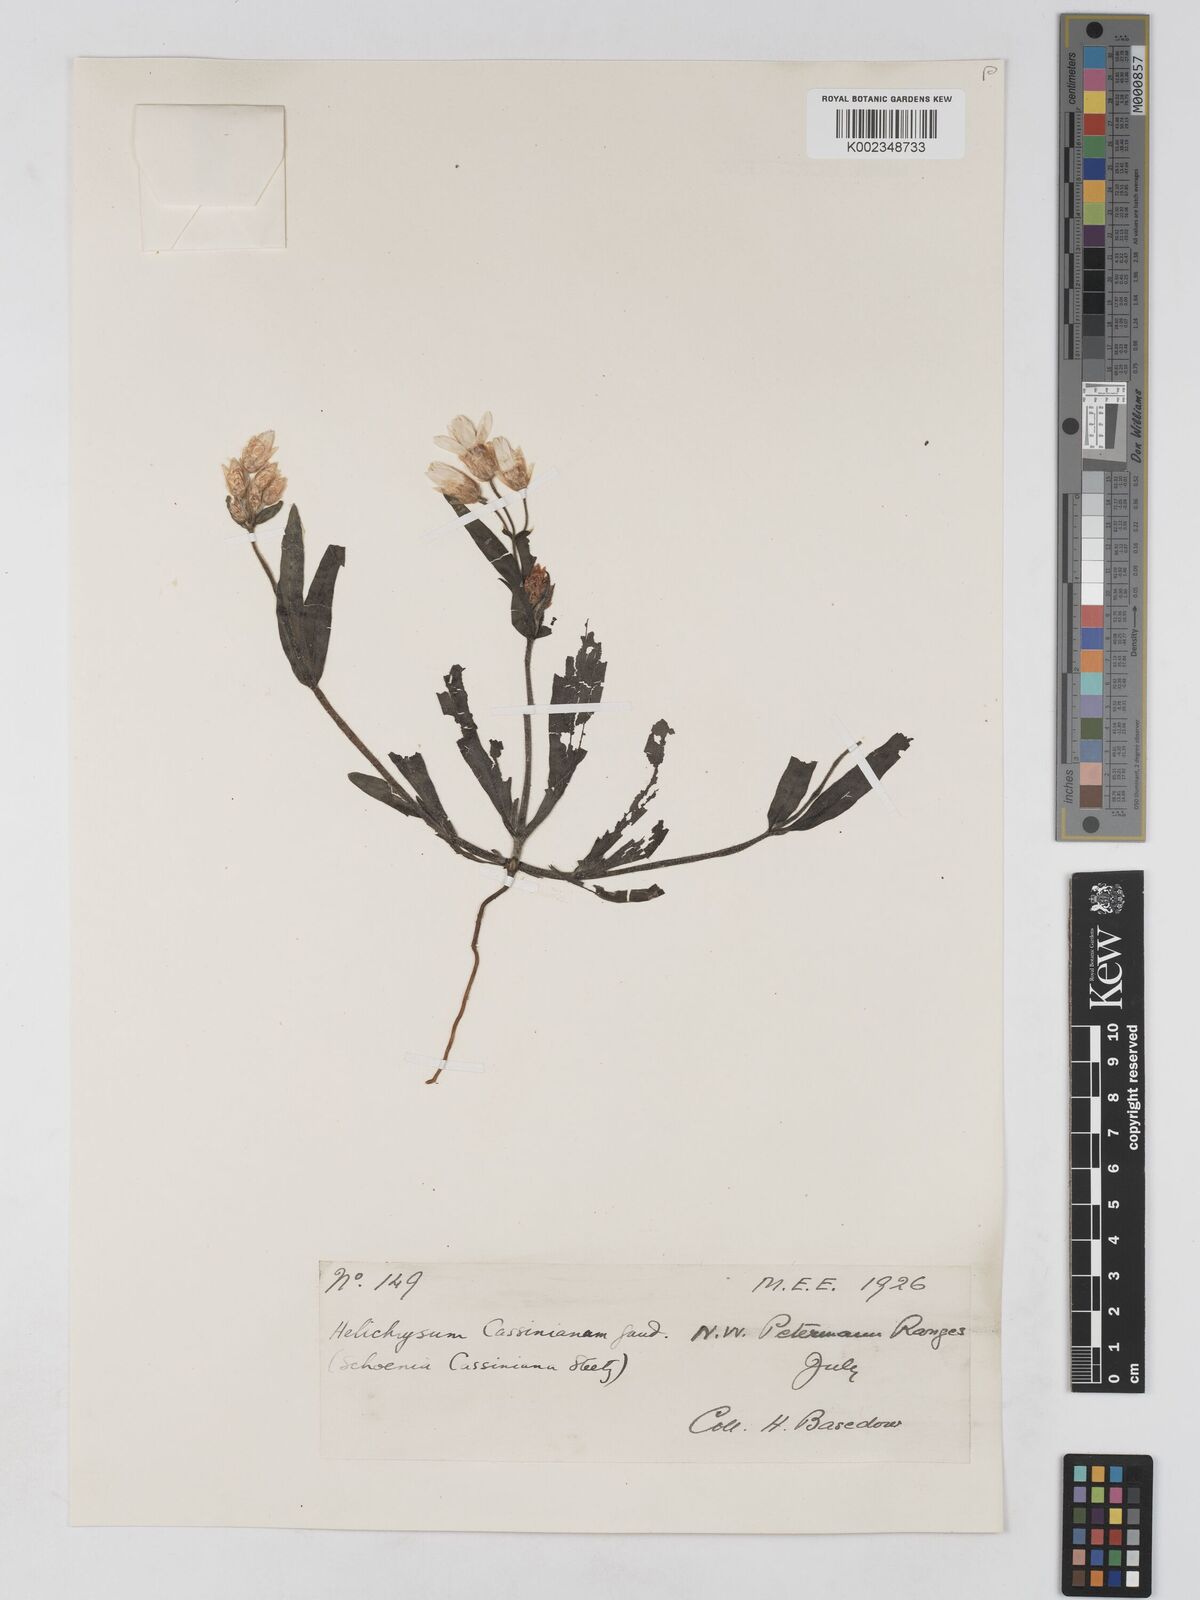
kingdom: Plantae
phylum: Tracheophyta
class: Magnoliopsida
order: Asterales
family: Asteraceae
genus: Schoenia
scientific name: Schoenia cassiniana
